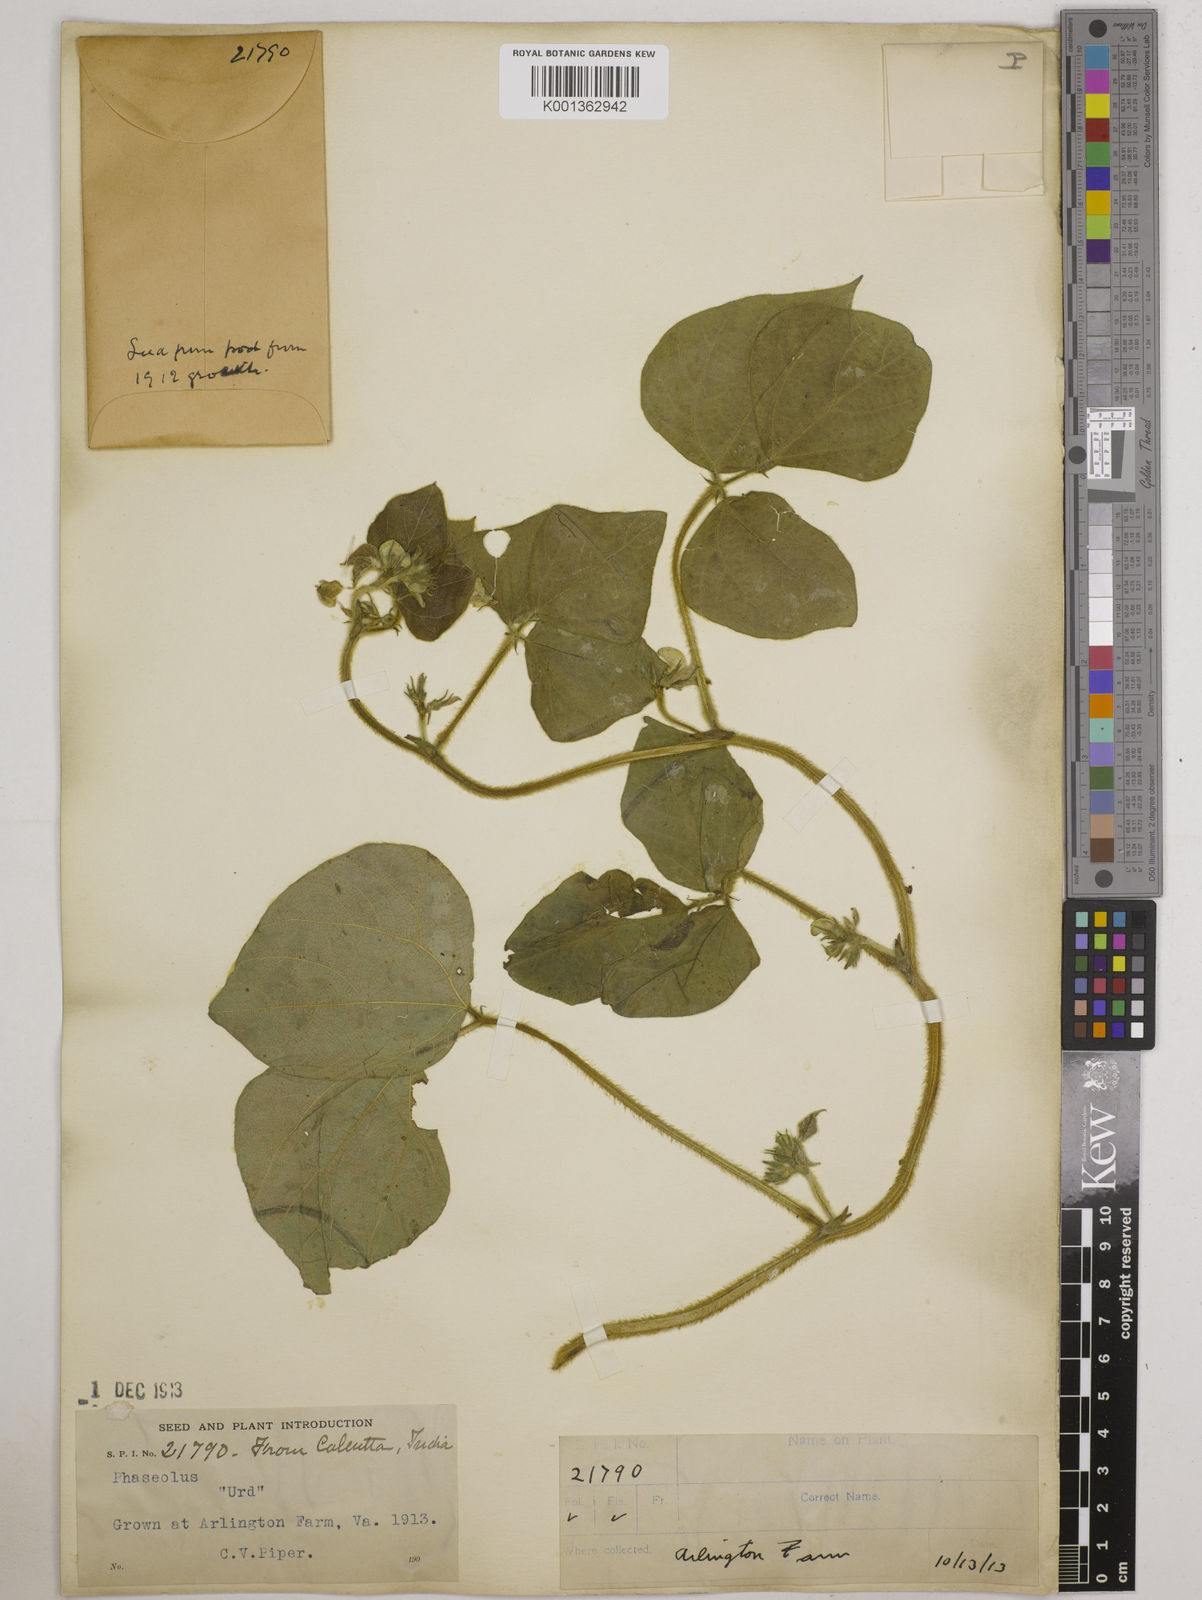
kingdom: Plantae
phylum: Tracheophyta
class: Magnoliopsida
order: Fabales
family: Fabaceae
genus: Vigna
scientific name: Vigna mungo
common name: Black gram
